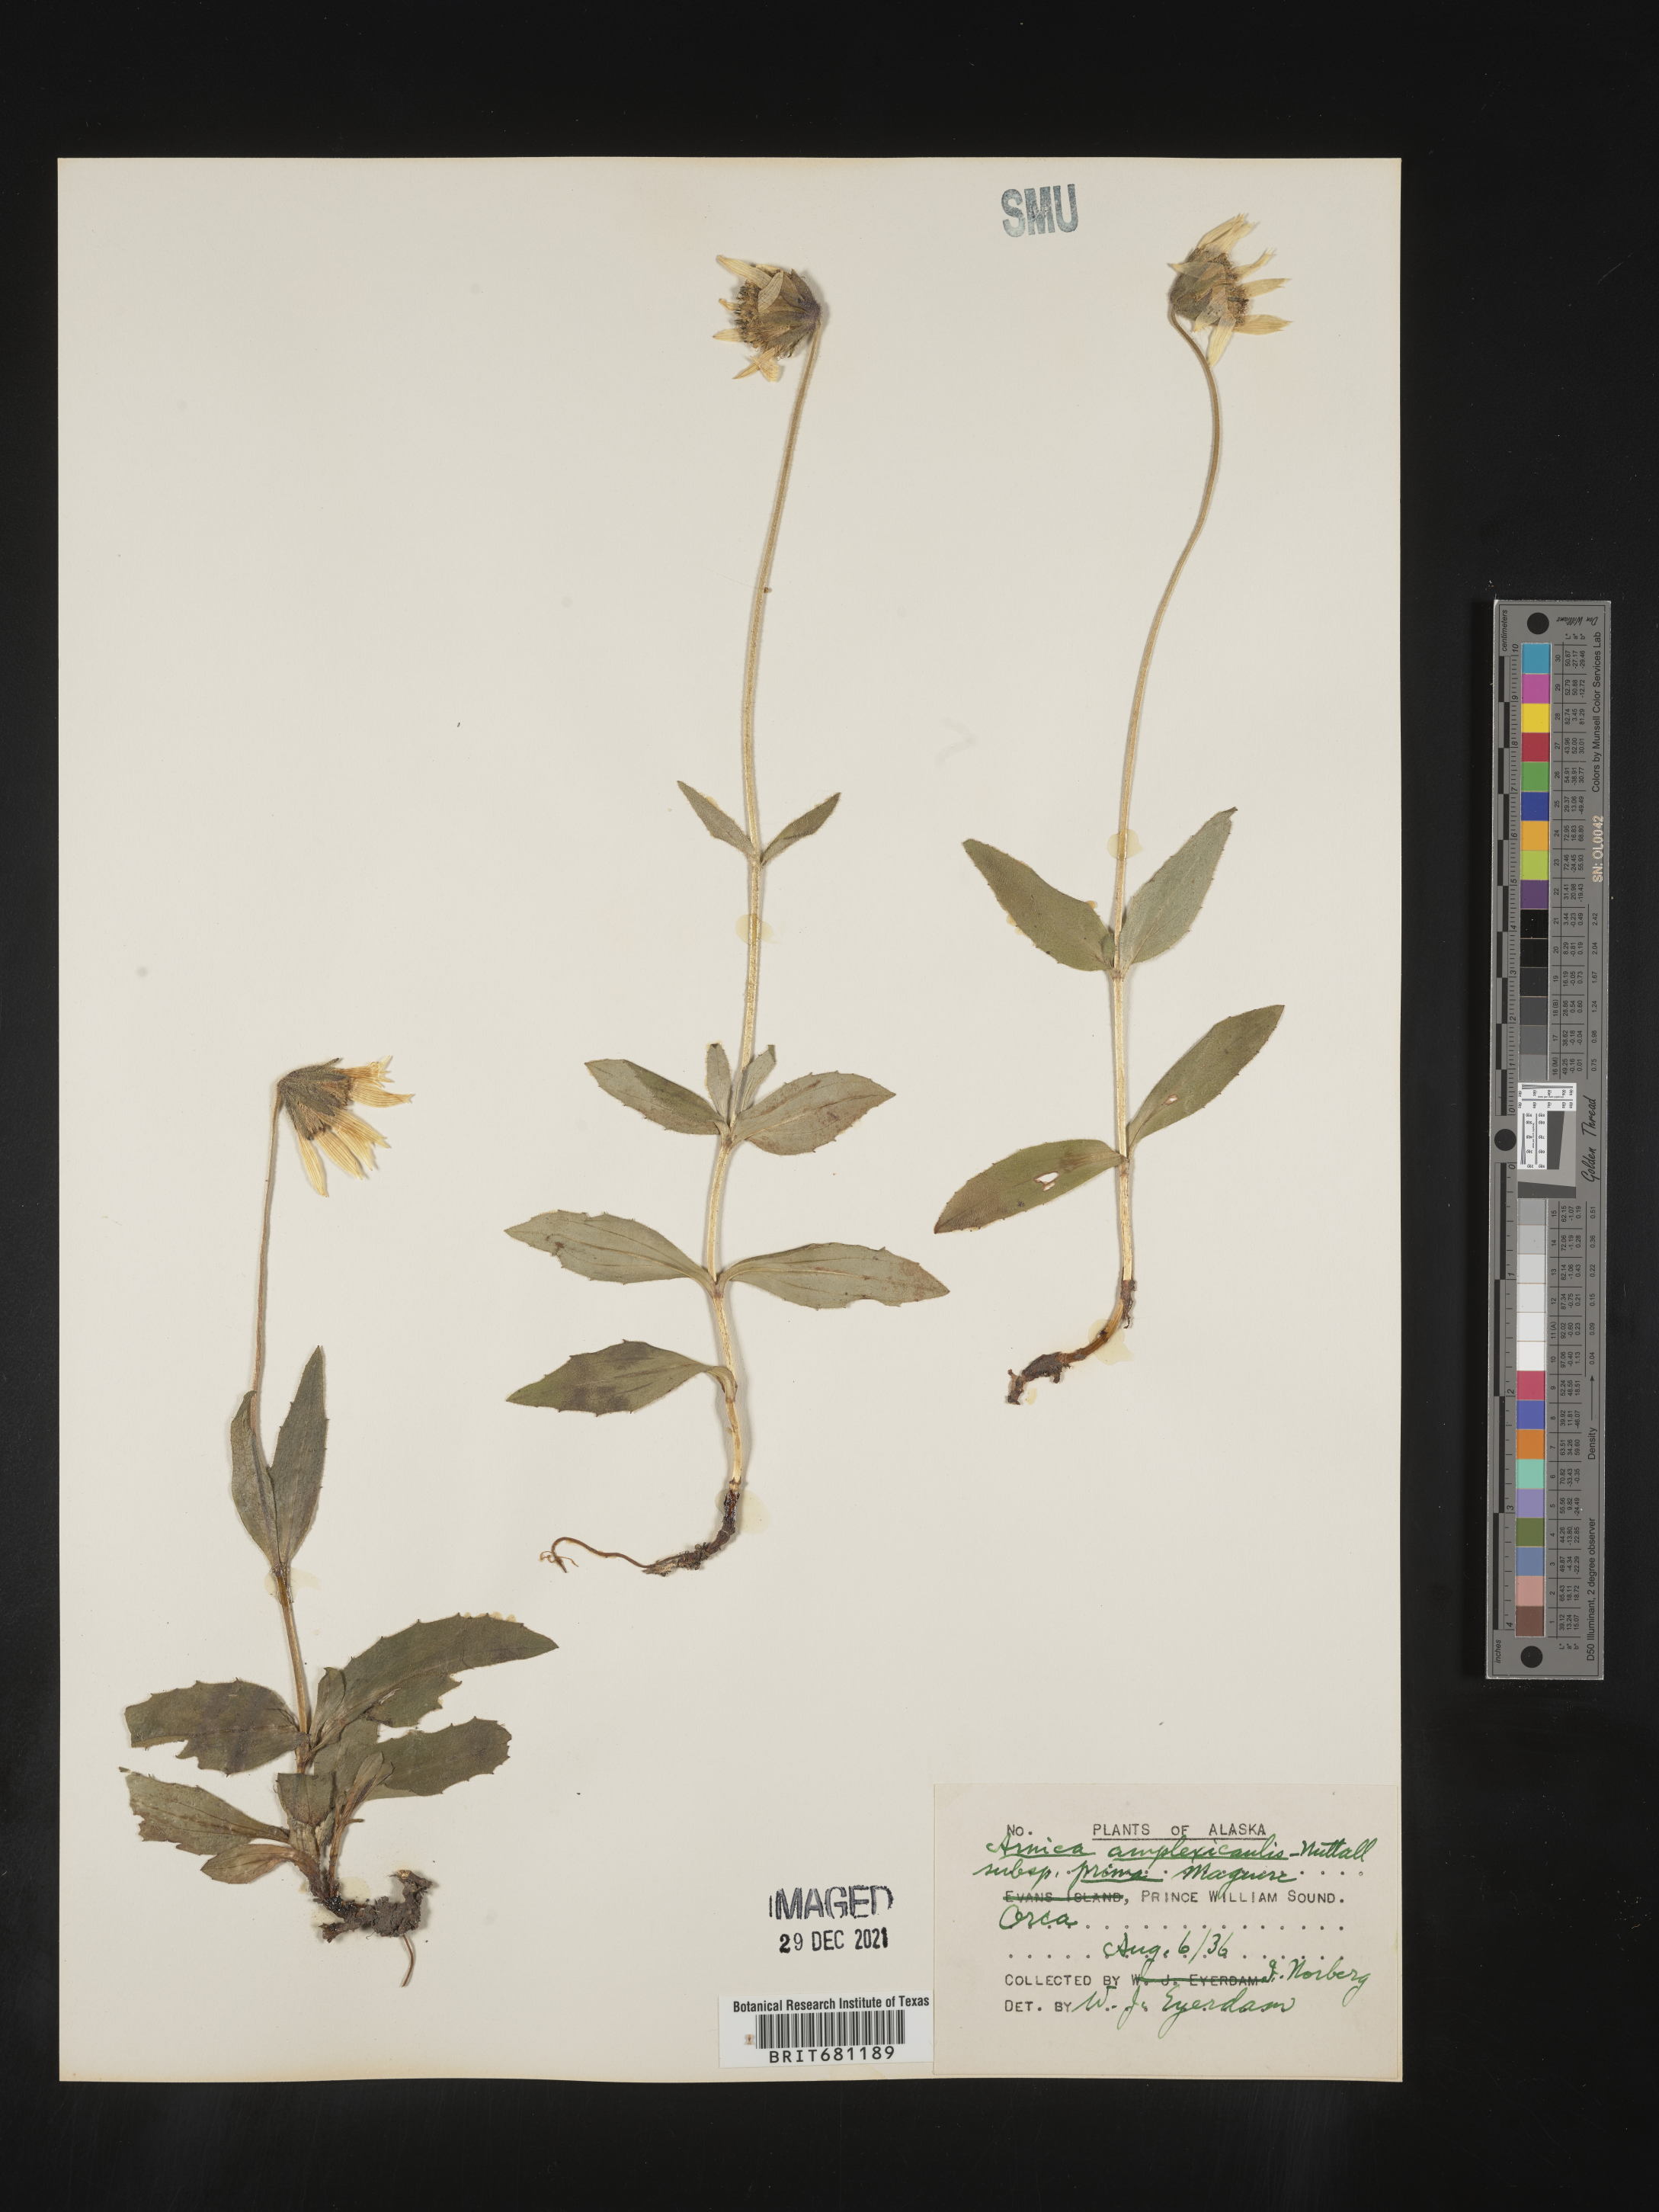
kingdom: Plantae
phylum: Tracheophyta
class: Magnoliopsida
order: Asterales
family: Asteraceae
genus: Arnica
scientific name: Arnica lanceolata
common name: Lance-leaved arnica
